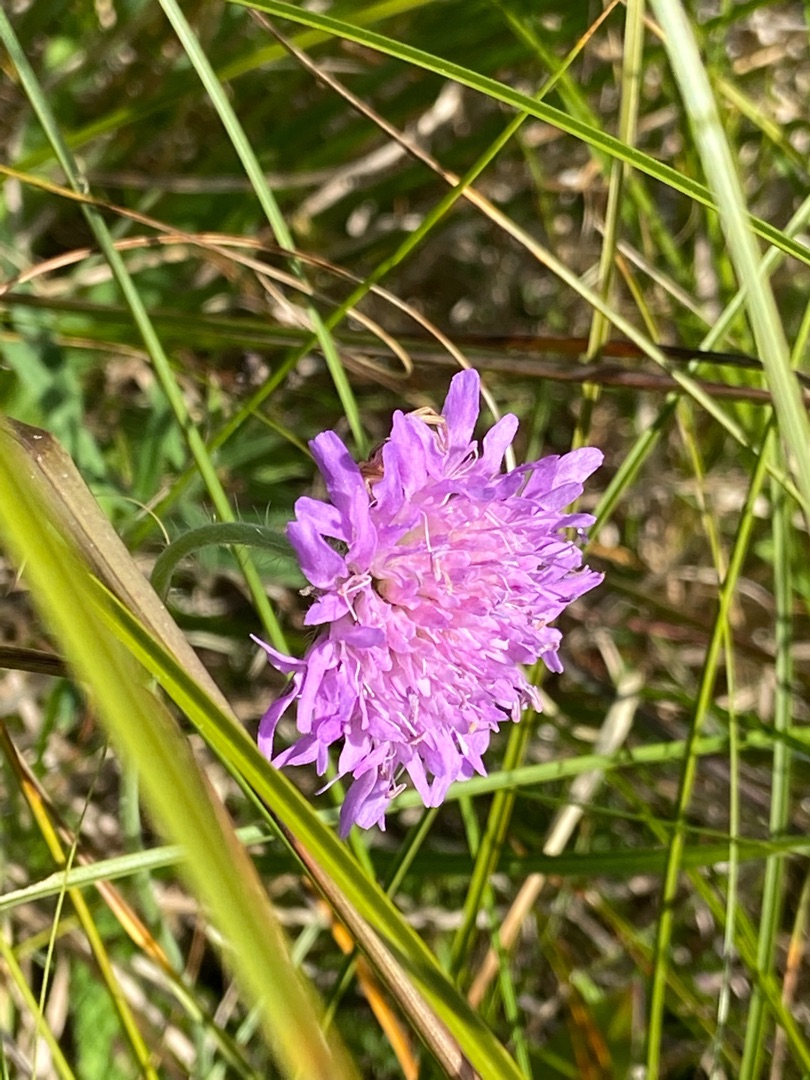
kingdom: Plantae
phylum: Tracheophyta
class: Magnoliopsida
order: Dipsacales
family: Caprifoliaceae
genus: Knautia
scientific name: Knautia arvensis
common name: Blåhat
